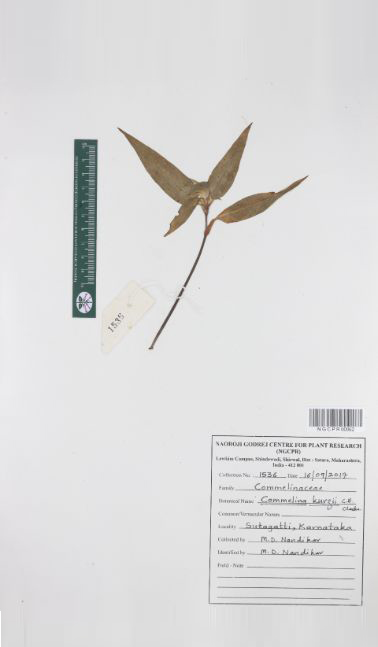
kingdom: Plantae
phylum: Tracheophyta
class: Liliopsida
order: Commelinales
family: Commelinaceae
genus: Commelina
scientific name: Commelina undulata
